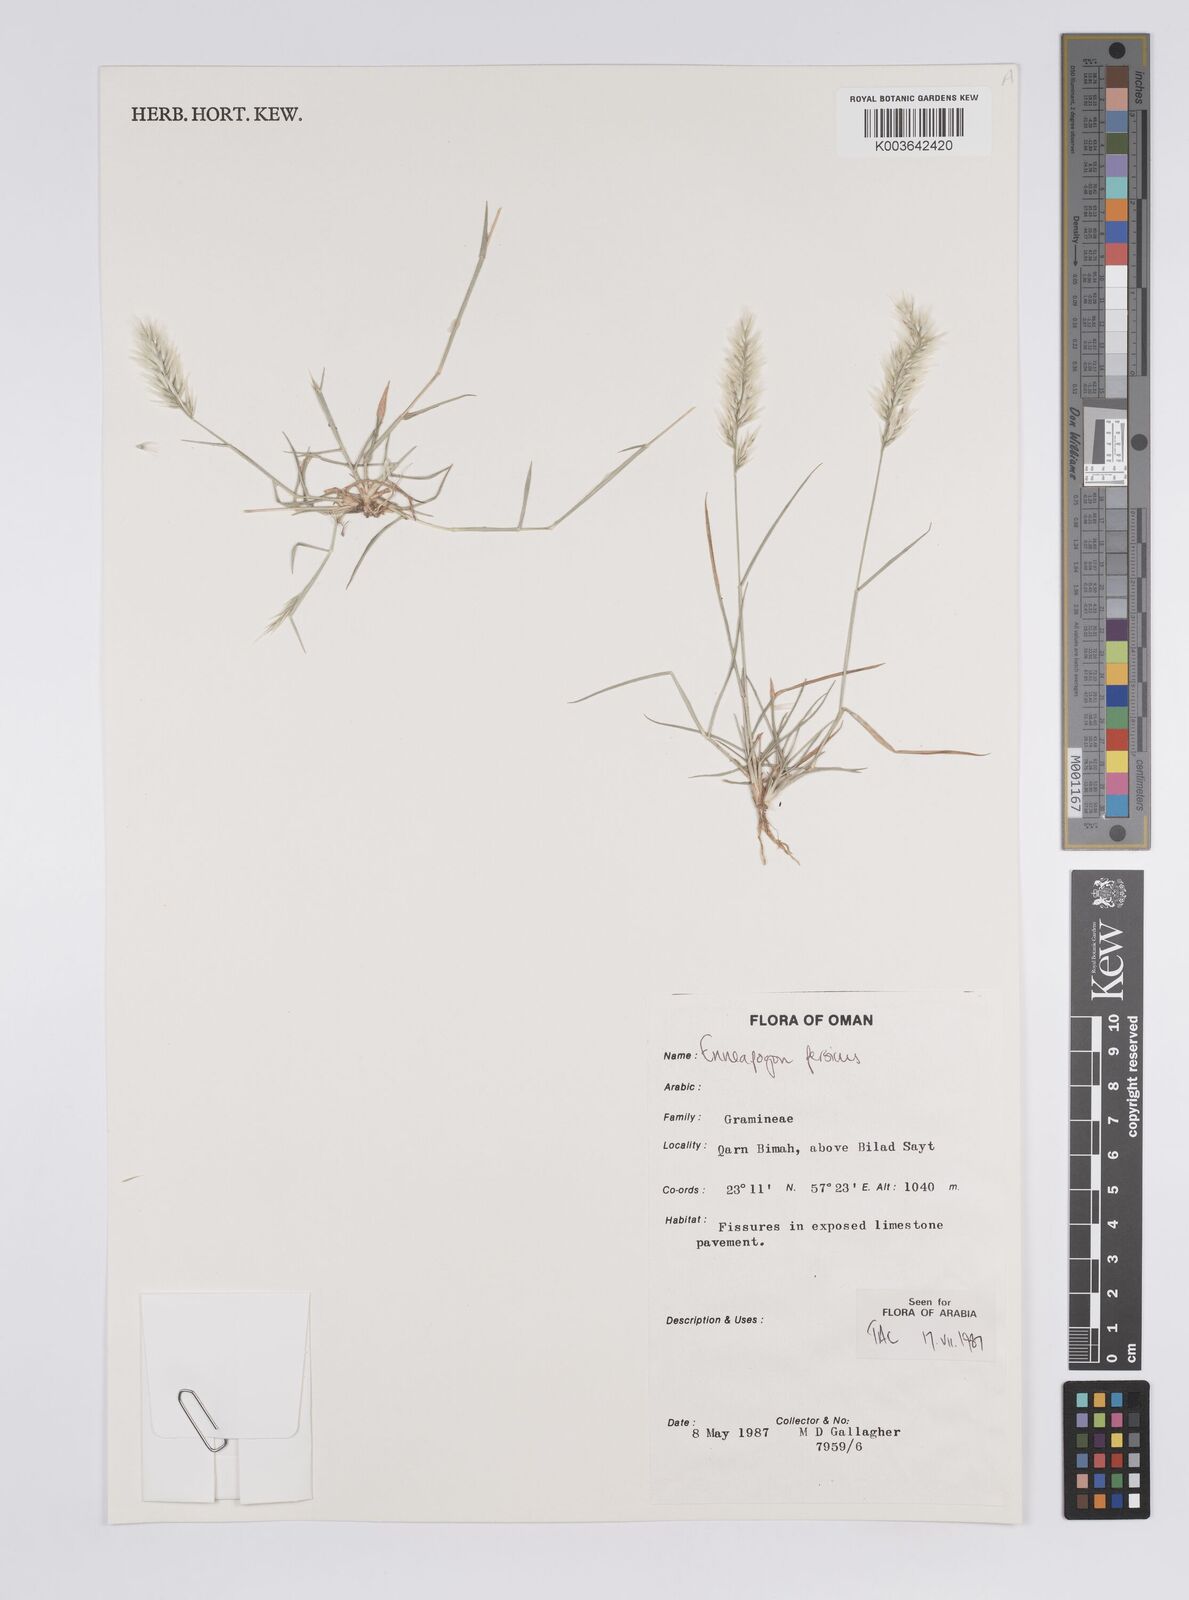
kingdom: Plantae
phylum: Tracheophyta
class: Liliopsida
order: Poales
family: Poaceae
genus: Enneapogon
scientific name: Enneapogon persicus
